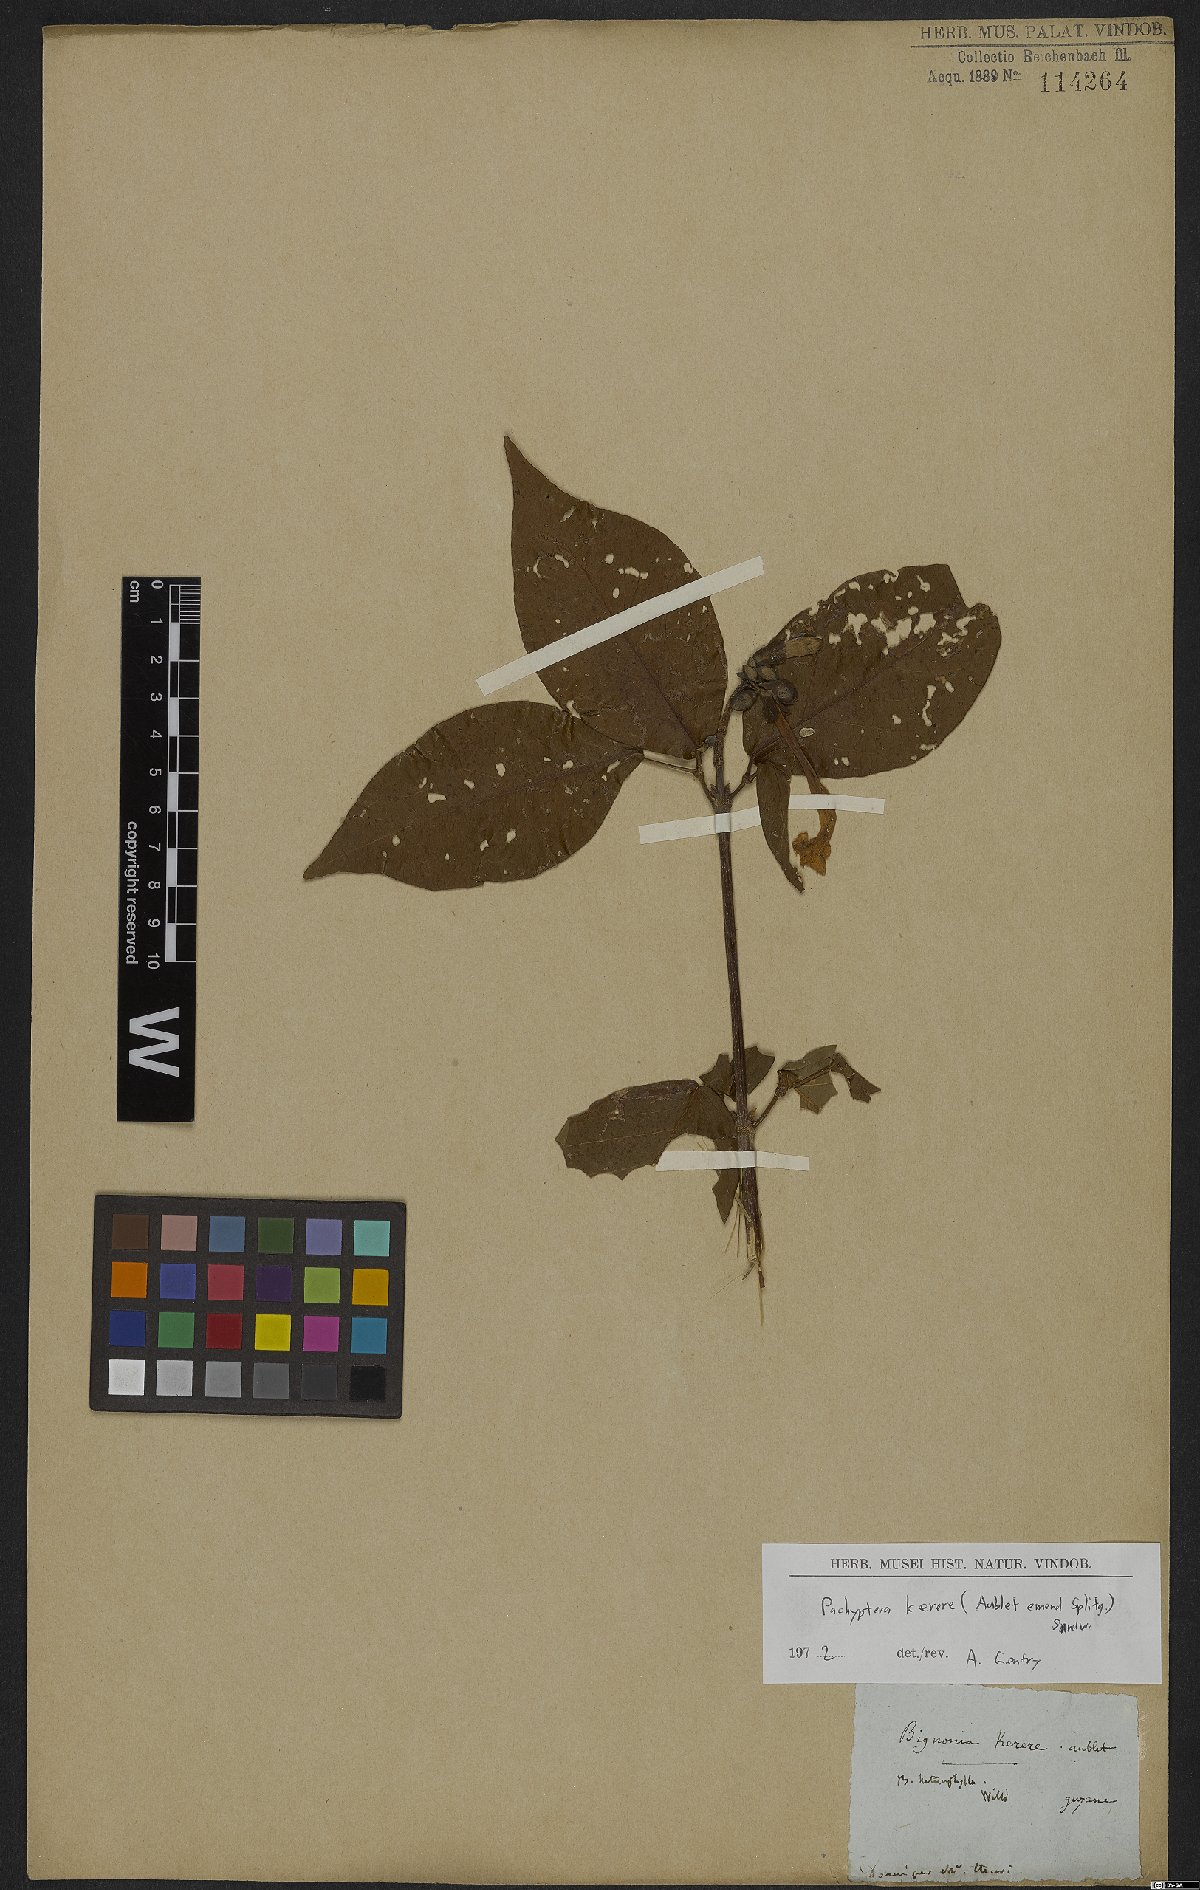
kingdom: Plantae
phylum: Tracheophyta
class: Magnoliopsida
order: Lamiales
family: Bignoniaceae
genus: Pachyptera
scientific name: Pachyptera kerere
